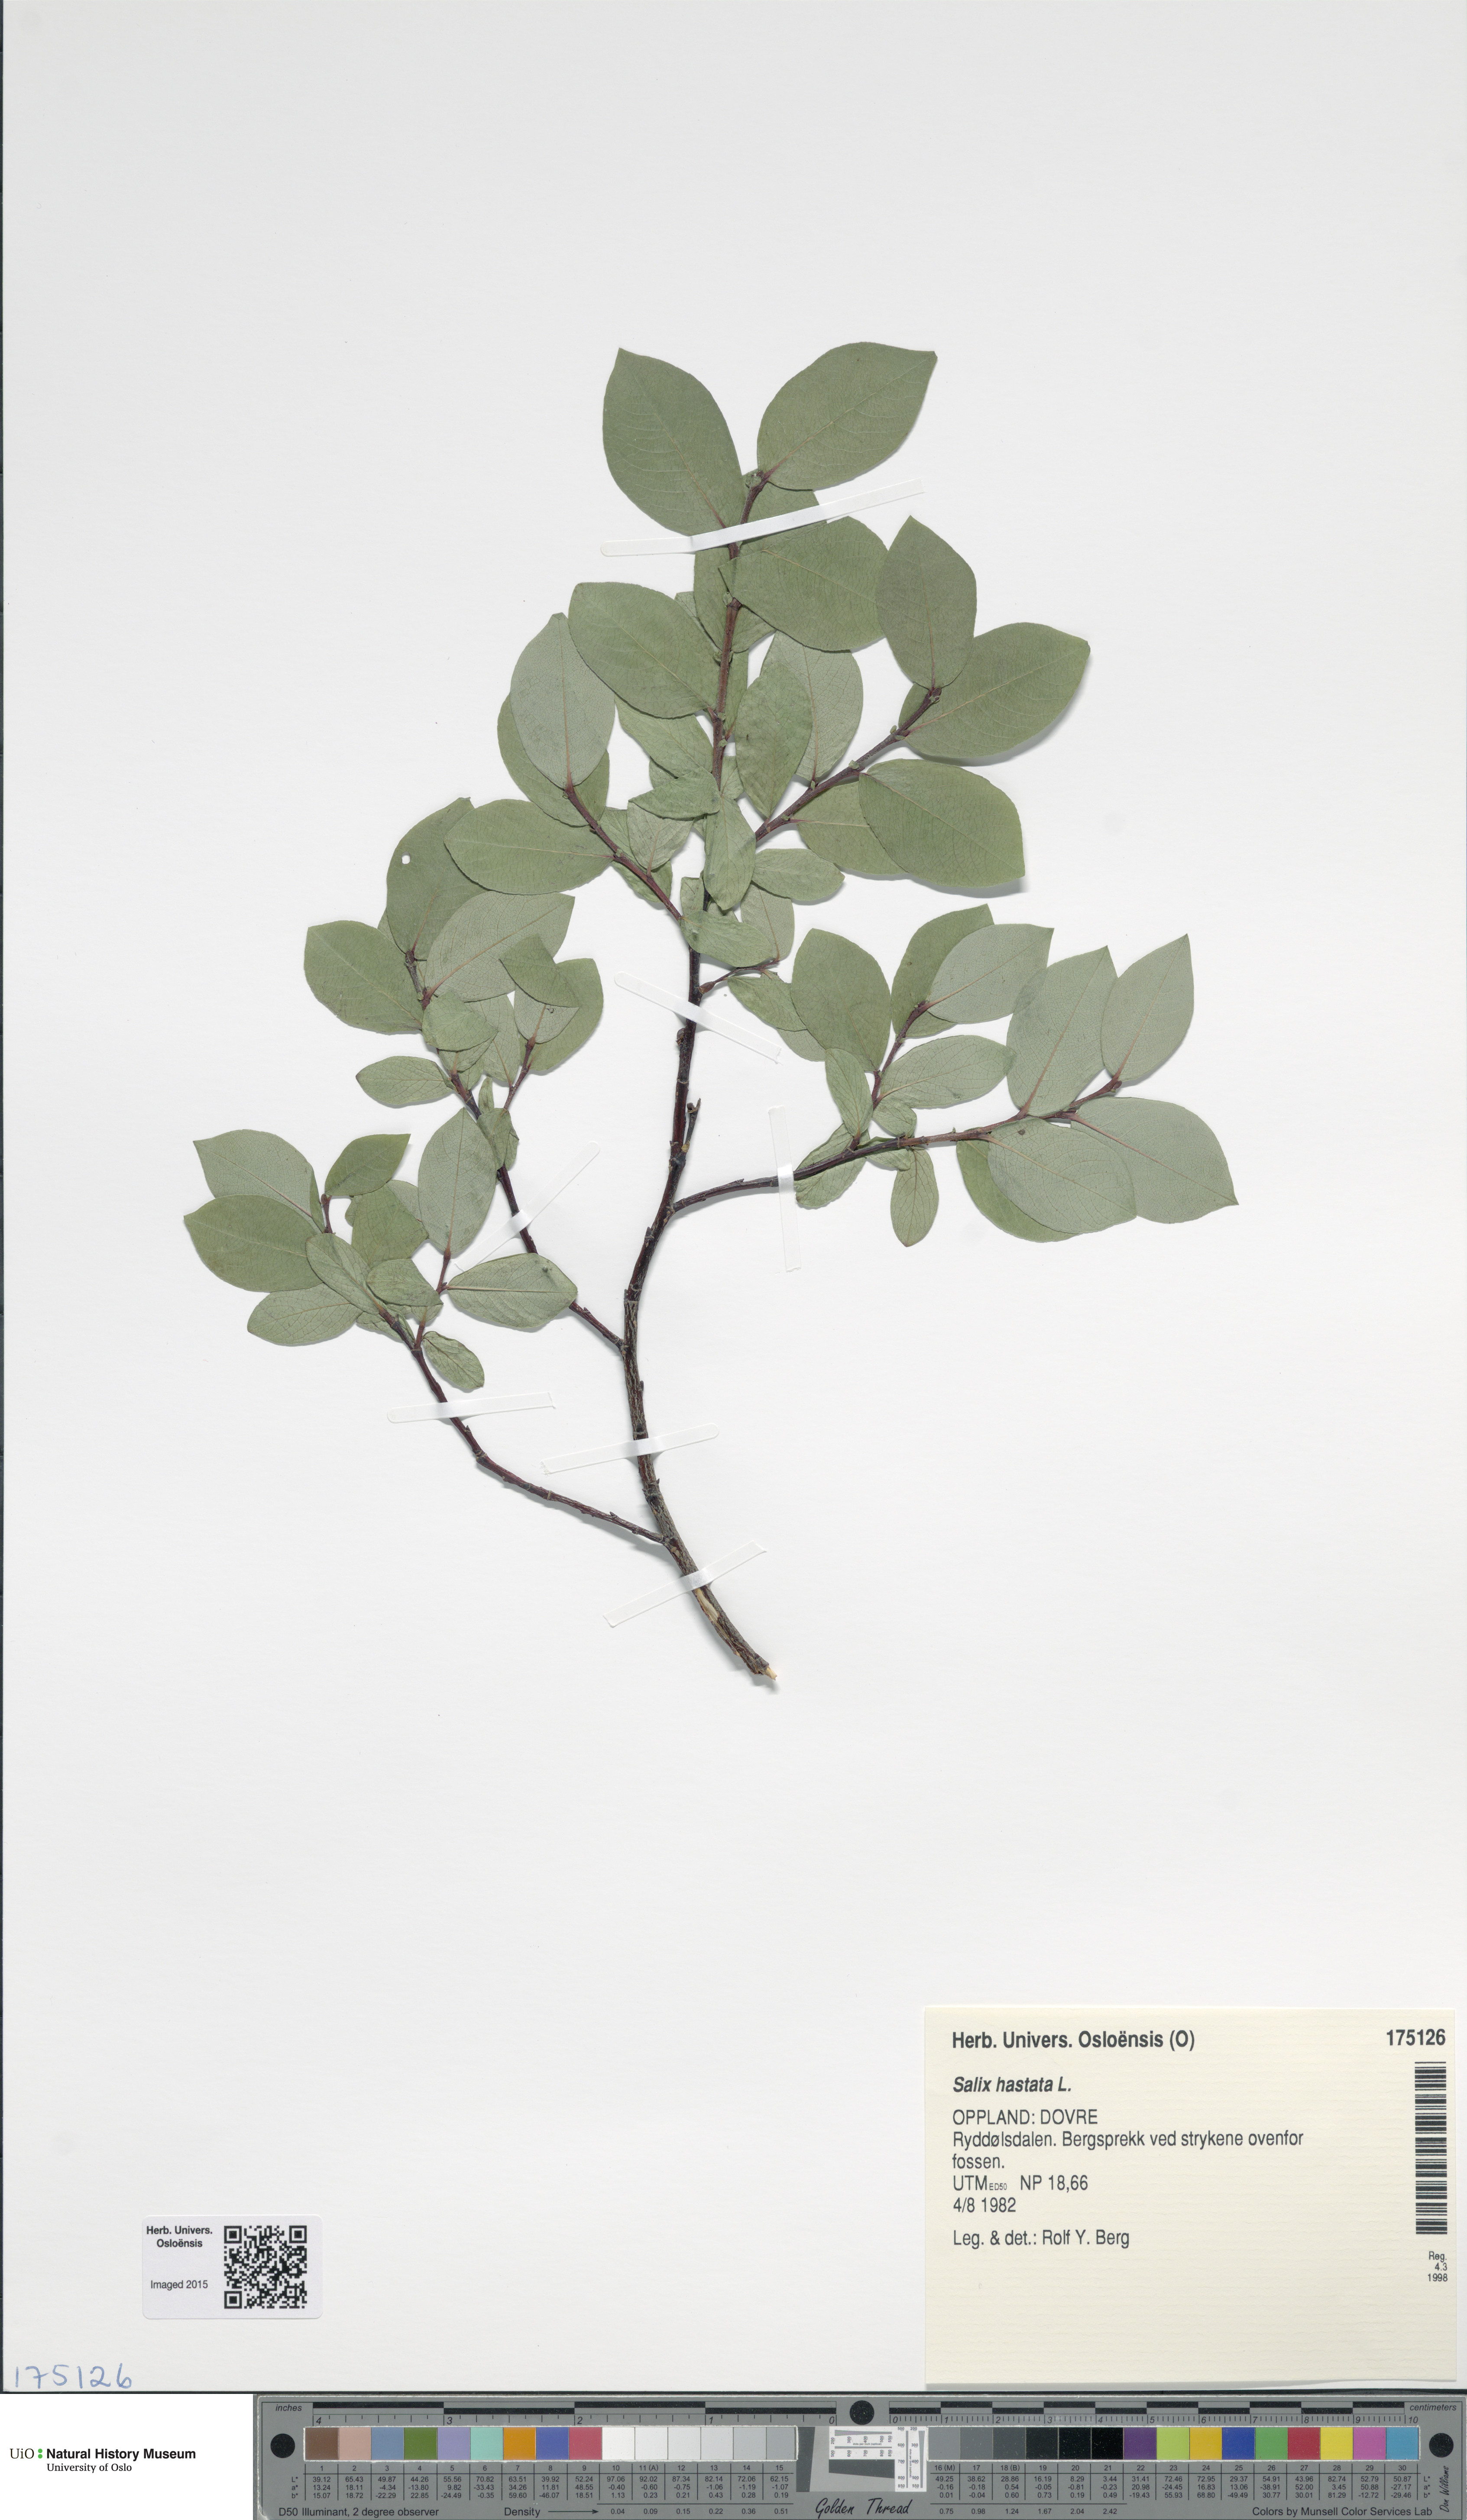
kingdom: Plantae
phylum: Tracheophyta
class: Magnoliopsida
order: Malpighiales
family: Salicaceae
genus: Salix
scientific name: Salix hastata
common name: Halberd willow
